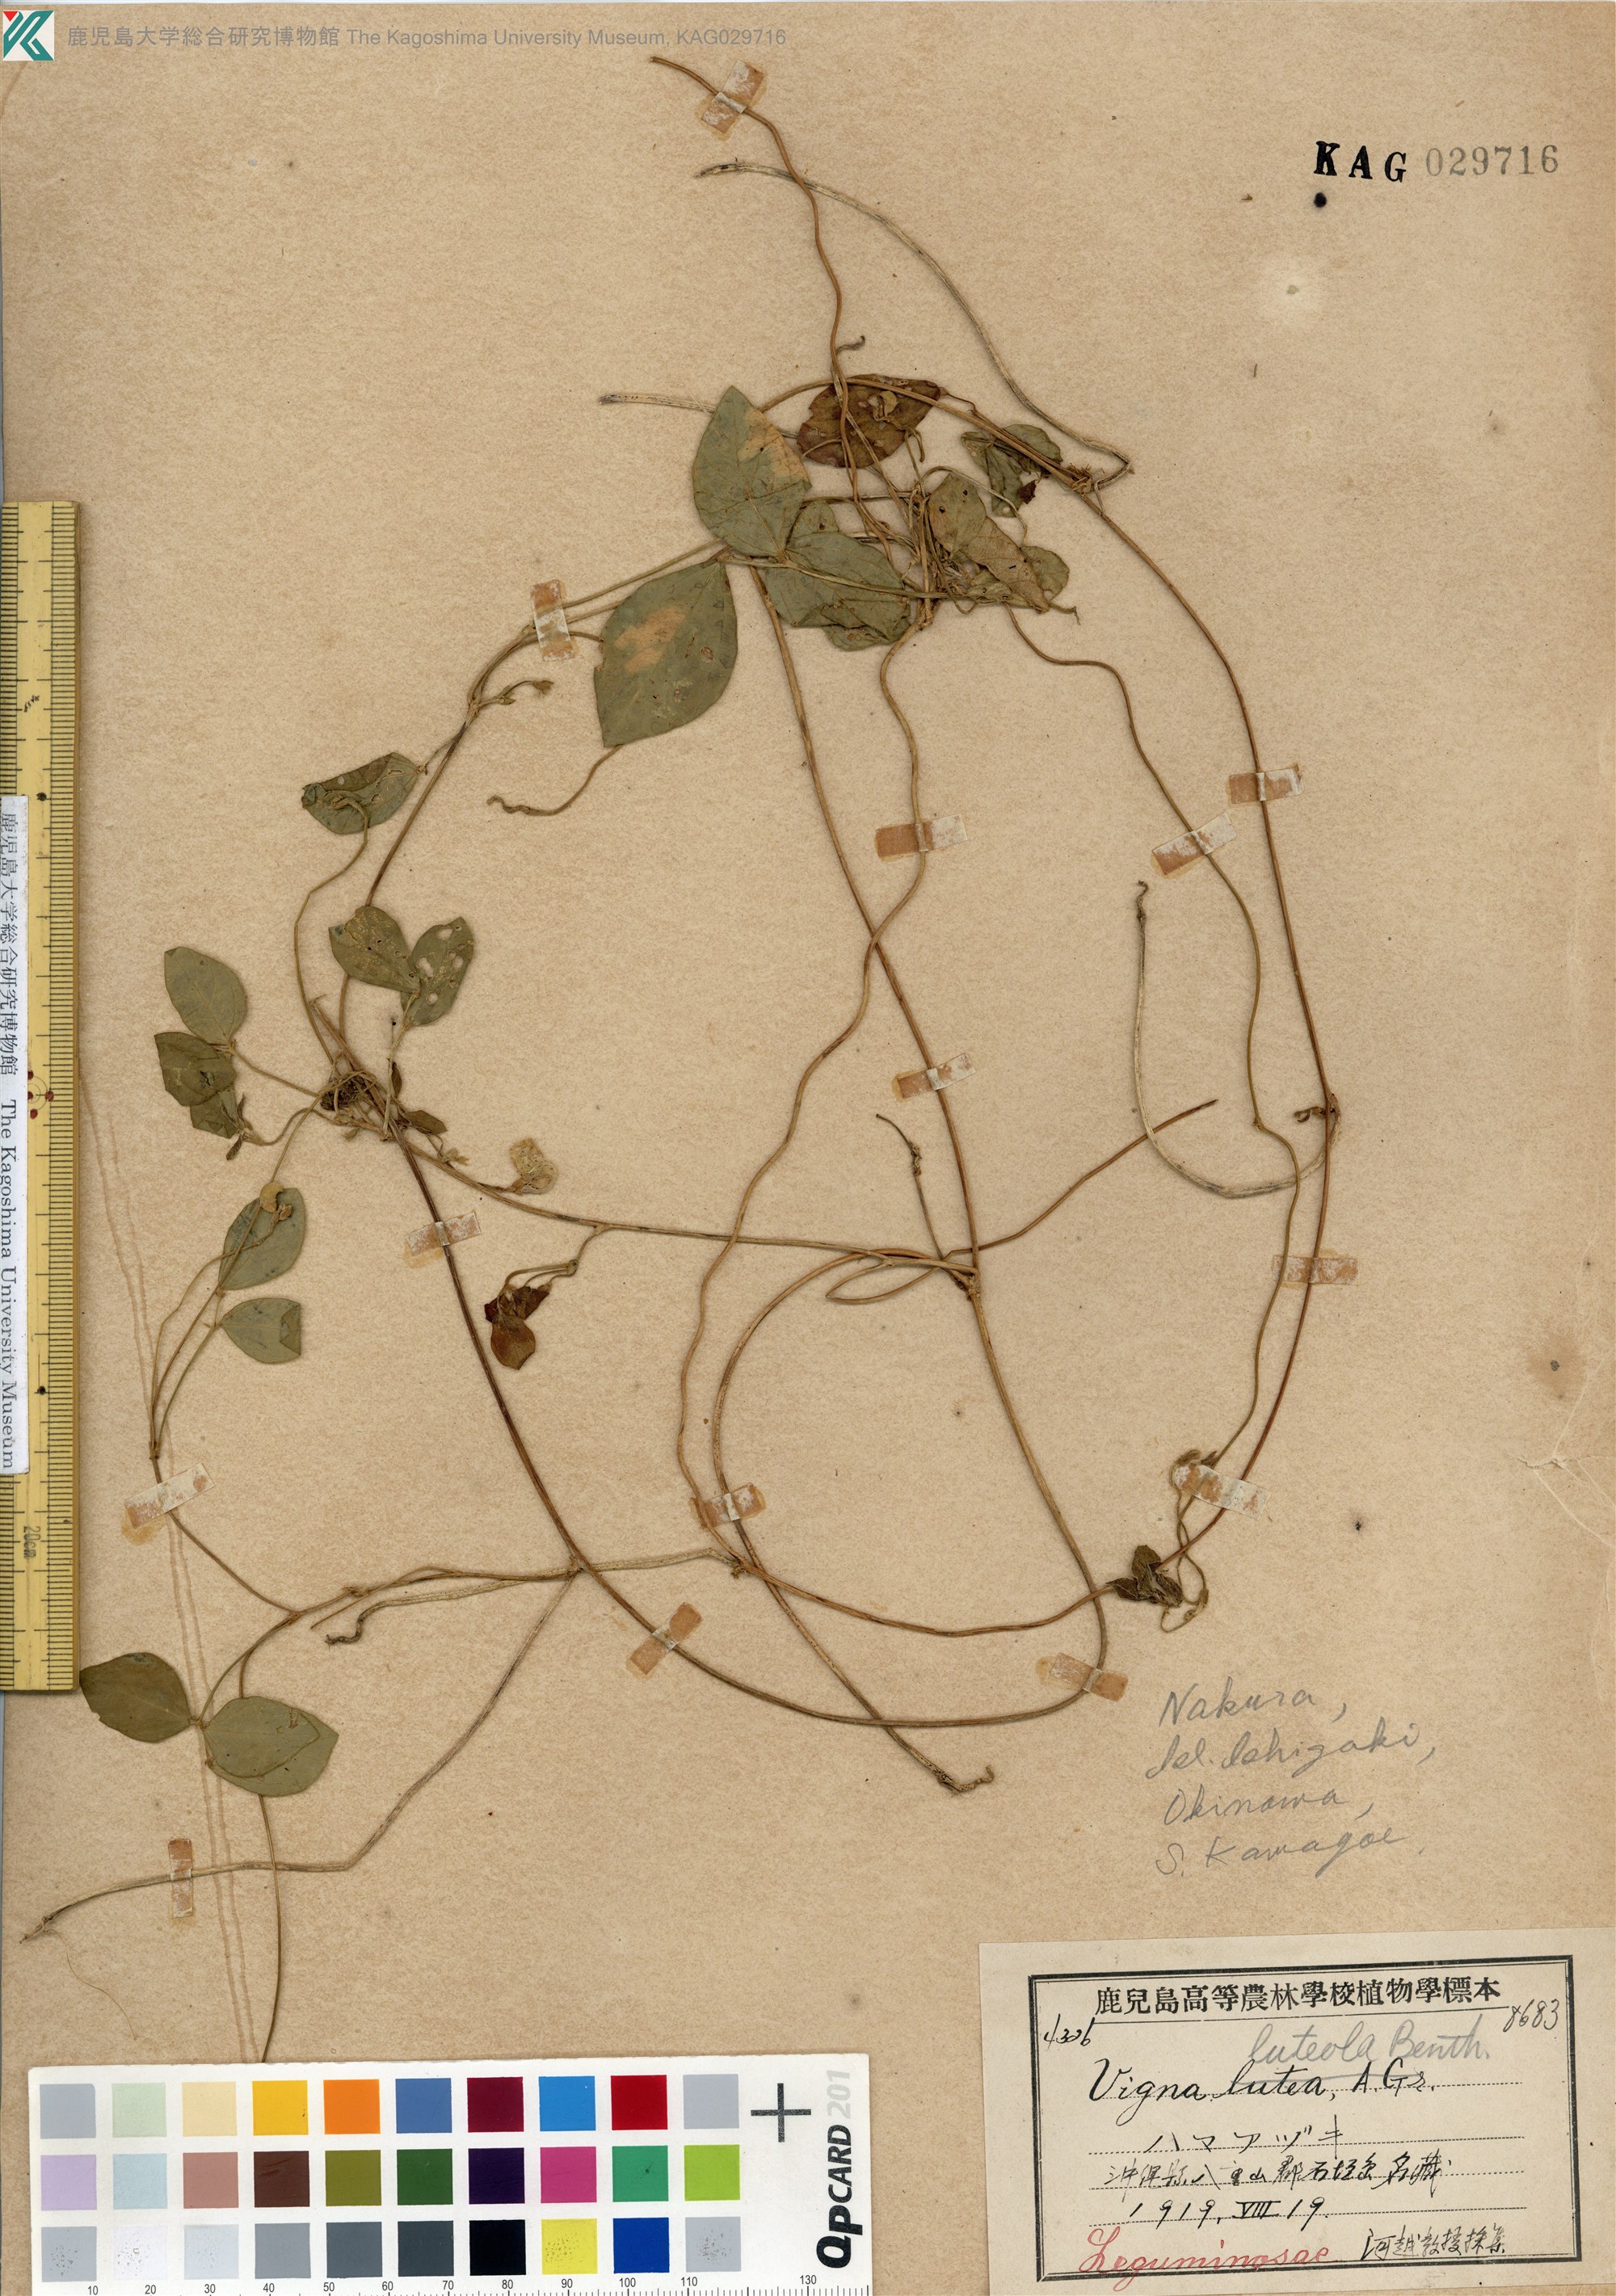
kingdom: Plantae
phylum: Tracheophyta
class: Magnoliopsida
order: Fabales
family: Fabaceae
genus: Vigna
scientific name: Vigna minima
